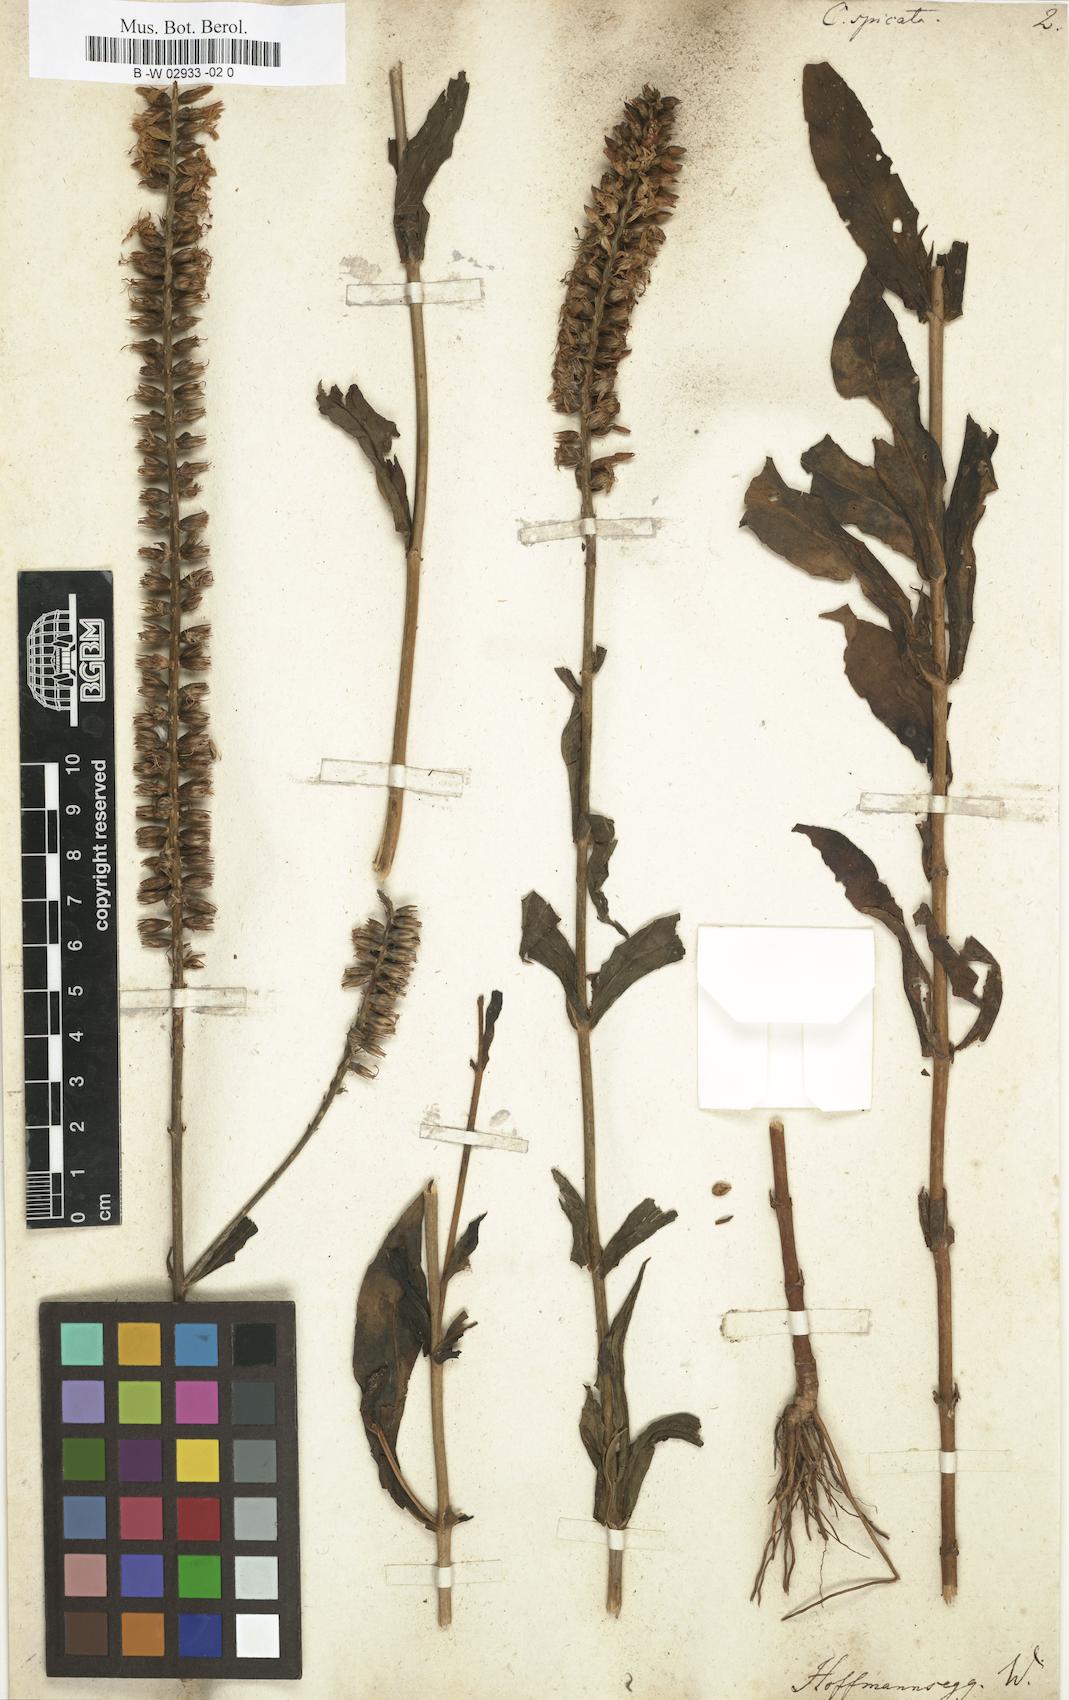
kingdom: Plantae
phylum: Tracheophyta
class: Magnoliopsida
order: Gentianales
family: Gentianaceae
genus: Coutoubea
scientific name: Coutoubea spicata
